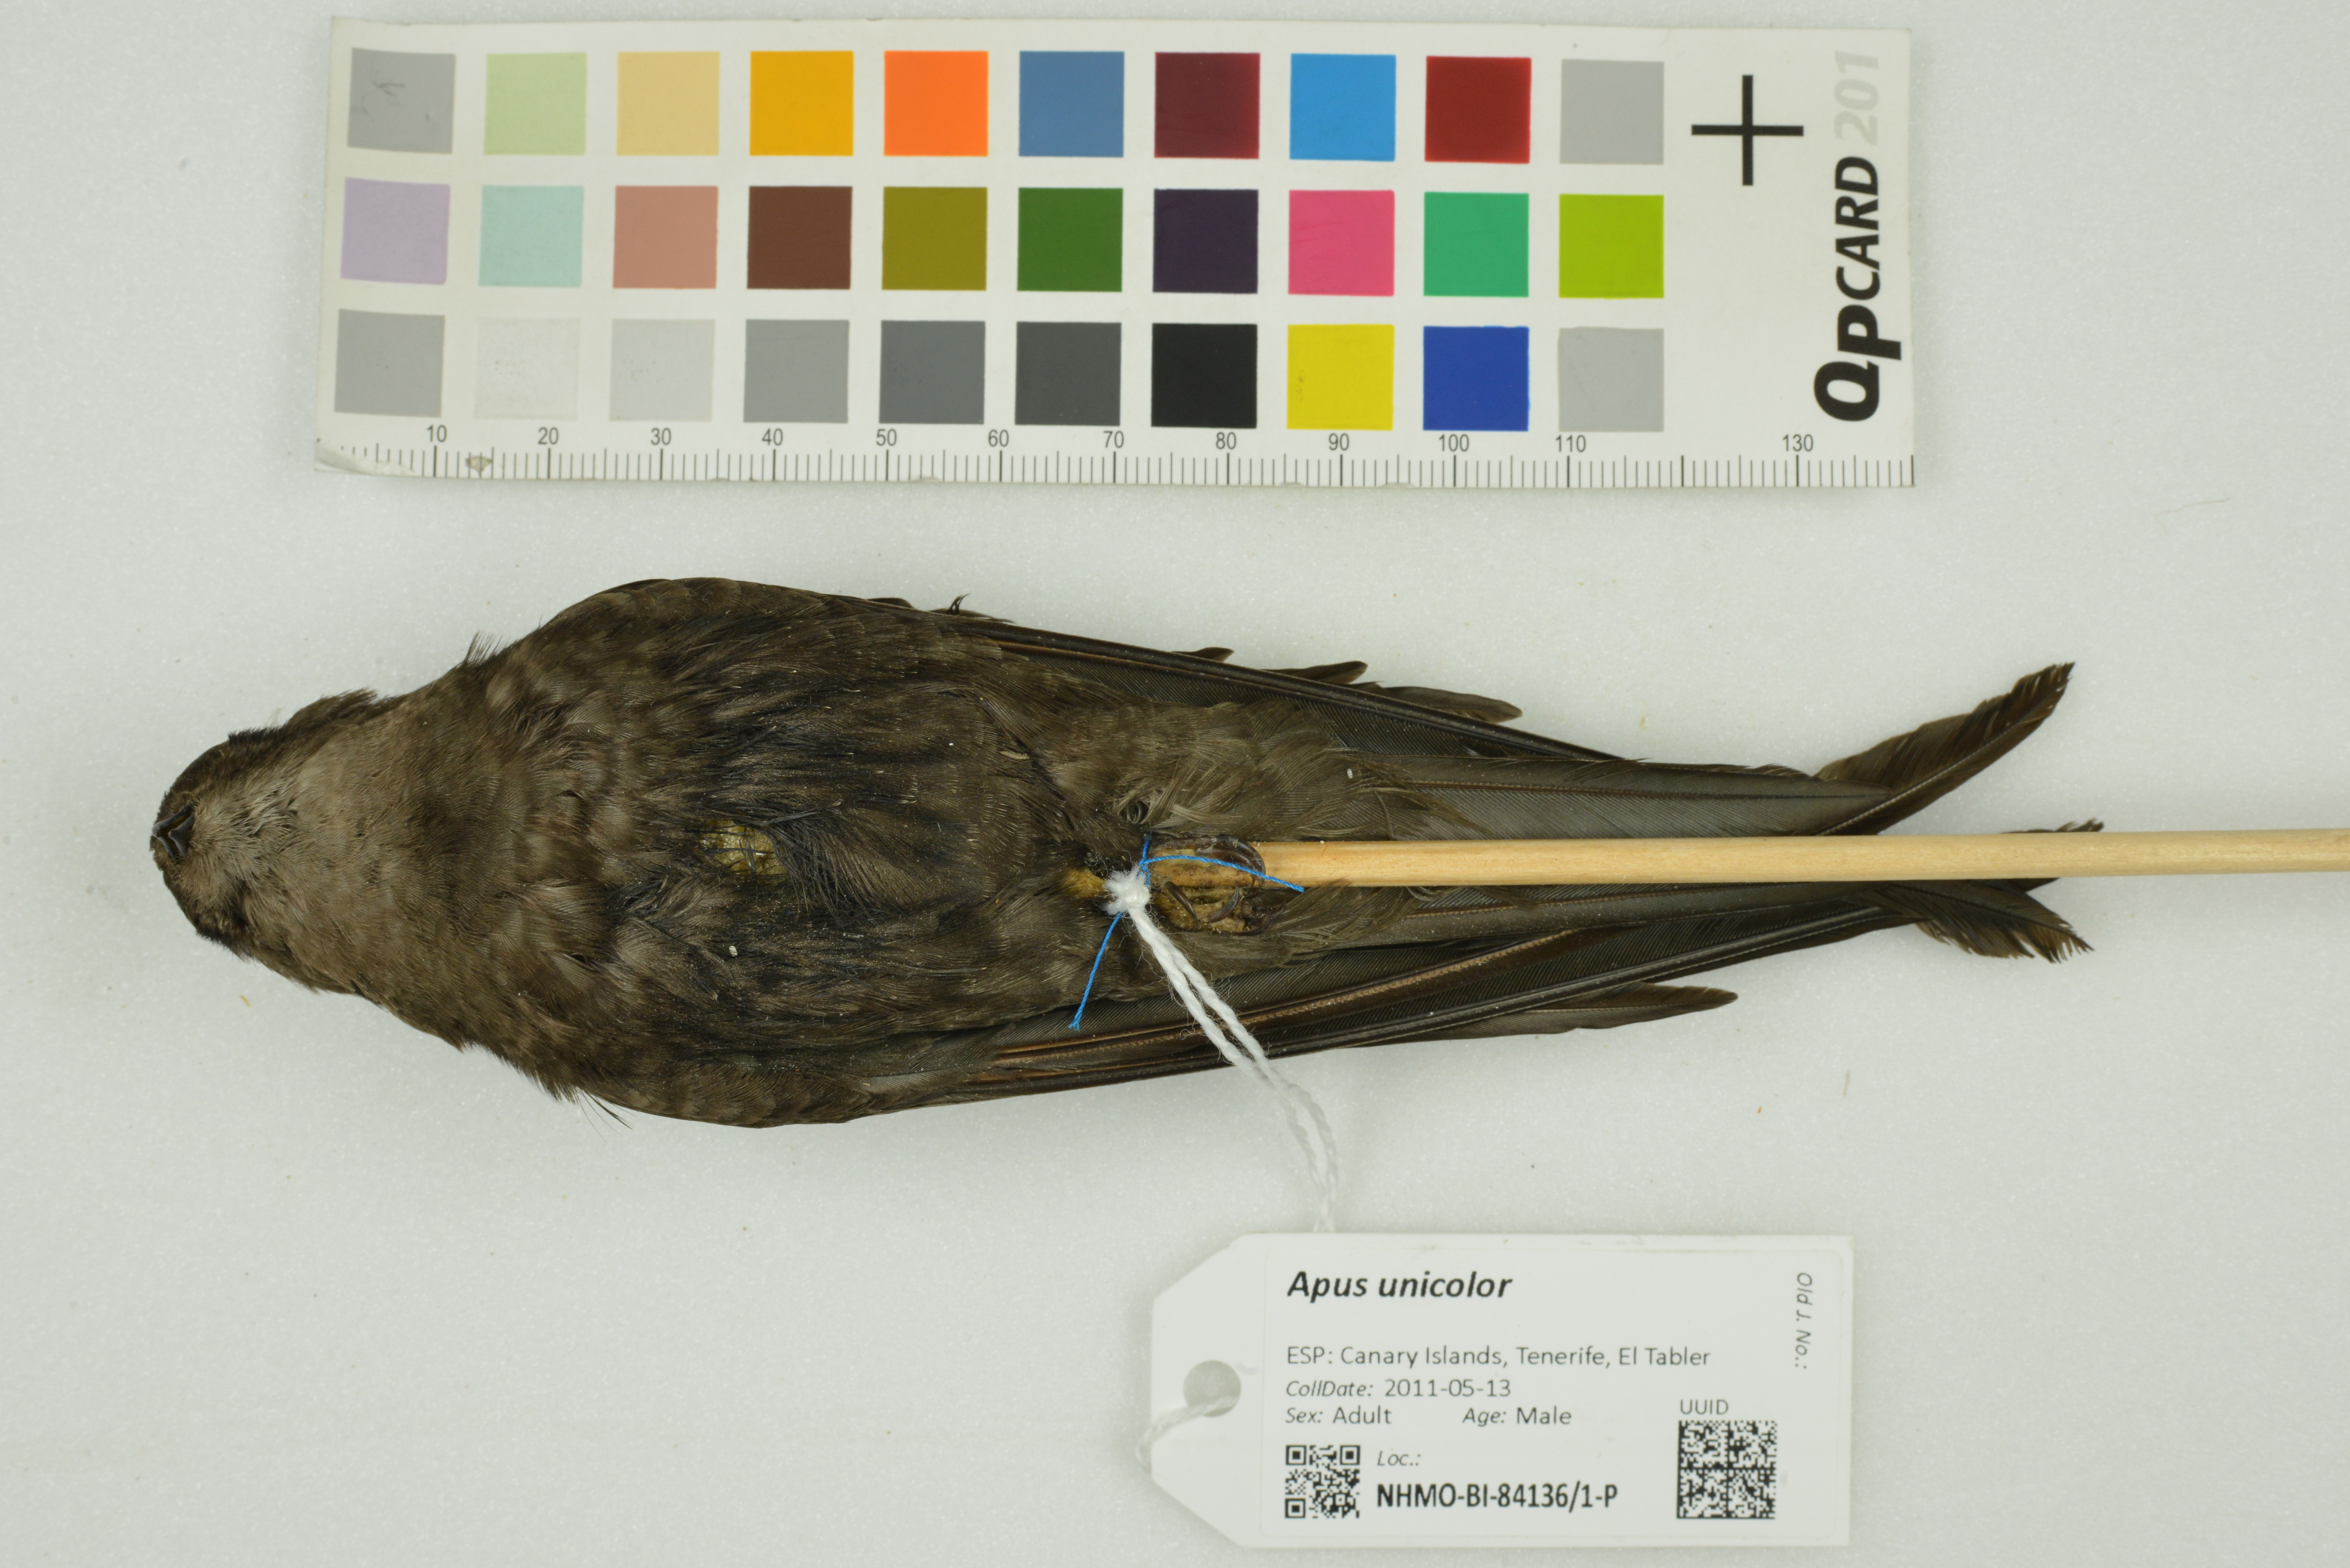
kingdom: Animalia
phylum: Chordata
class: Aves
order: Apodiformes
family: Apodidae
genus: Apus
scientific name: Apus unicolor
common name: Plain swift
